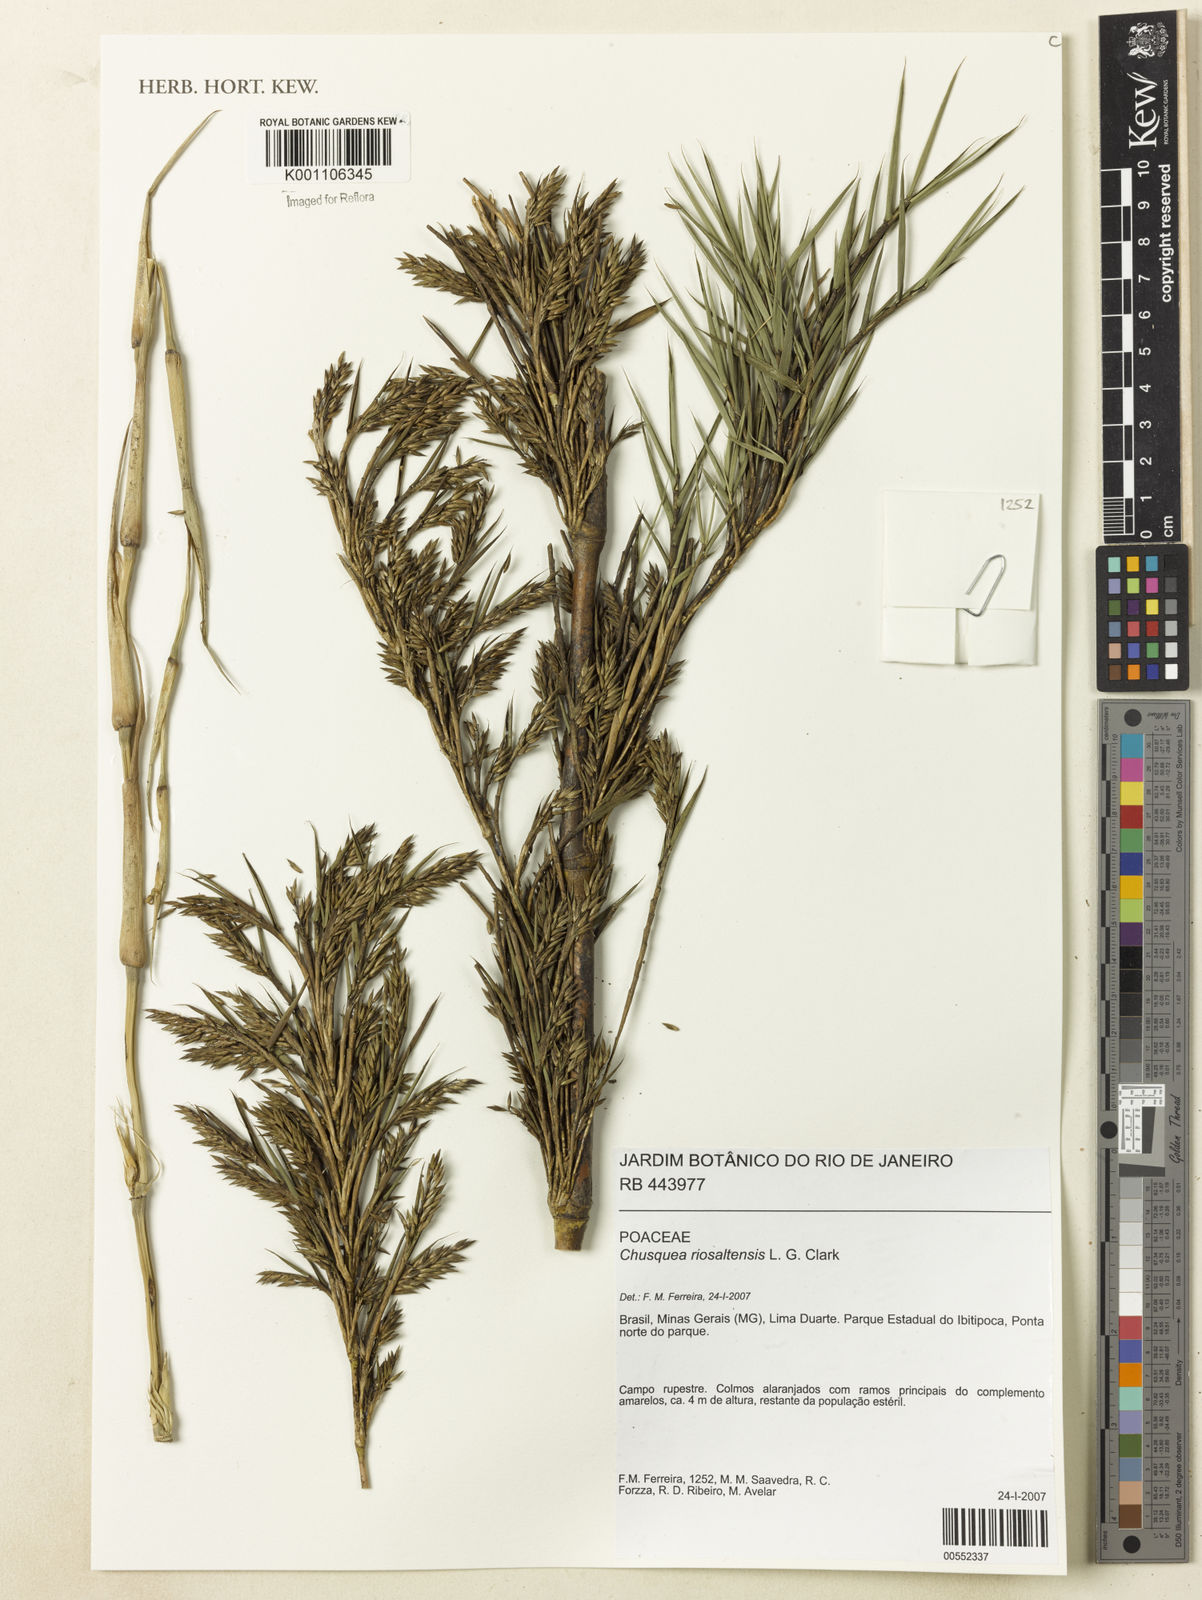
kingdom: Plantae
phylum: Tracheophyta
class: Liliopsida
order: Poales
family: Poaceae
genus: Chusquea
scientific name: Chusquea riosaltensis
